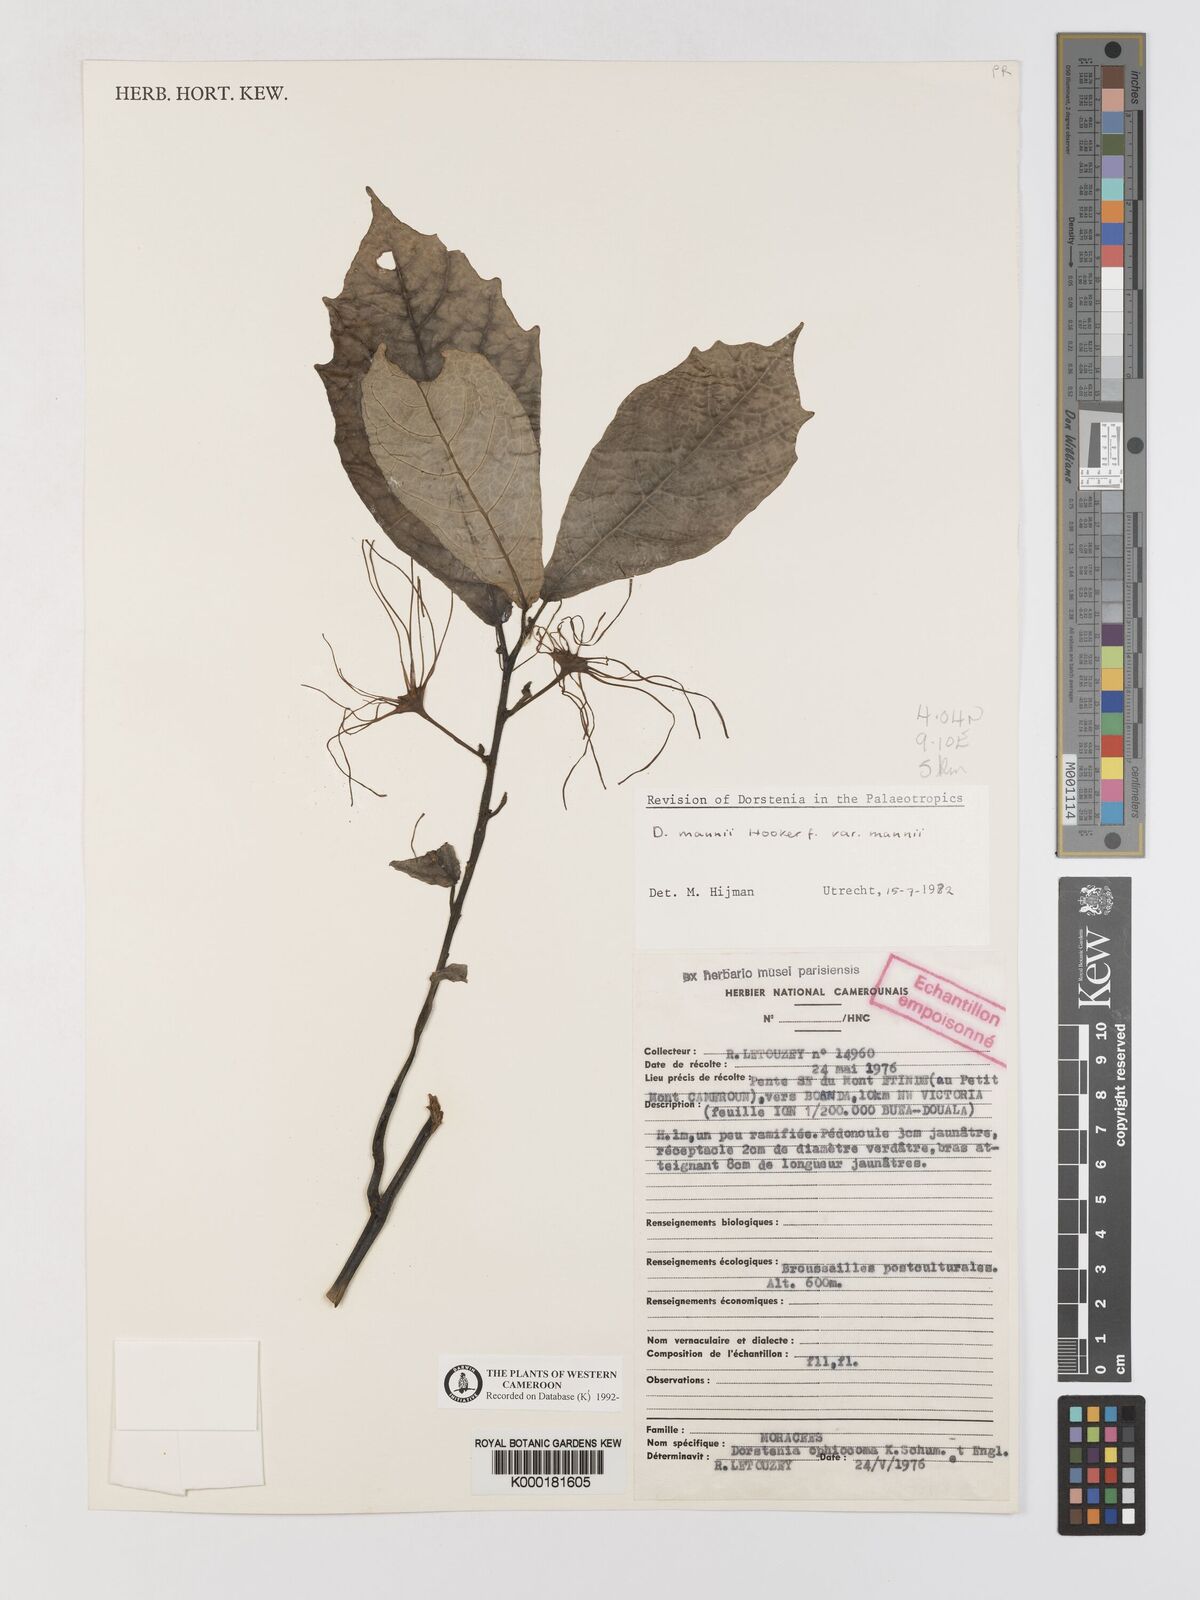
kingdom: Plantae
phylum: Tracheophyta
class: Magnoliopsida
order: Rosales
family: Moraceae
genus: Dorstenia
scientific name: Dorstenia mannii
